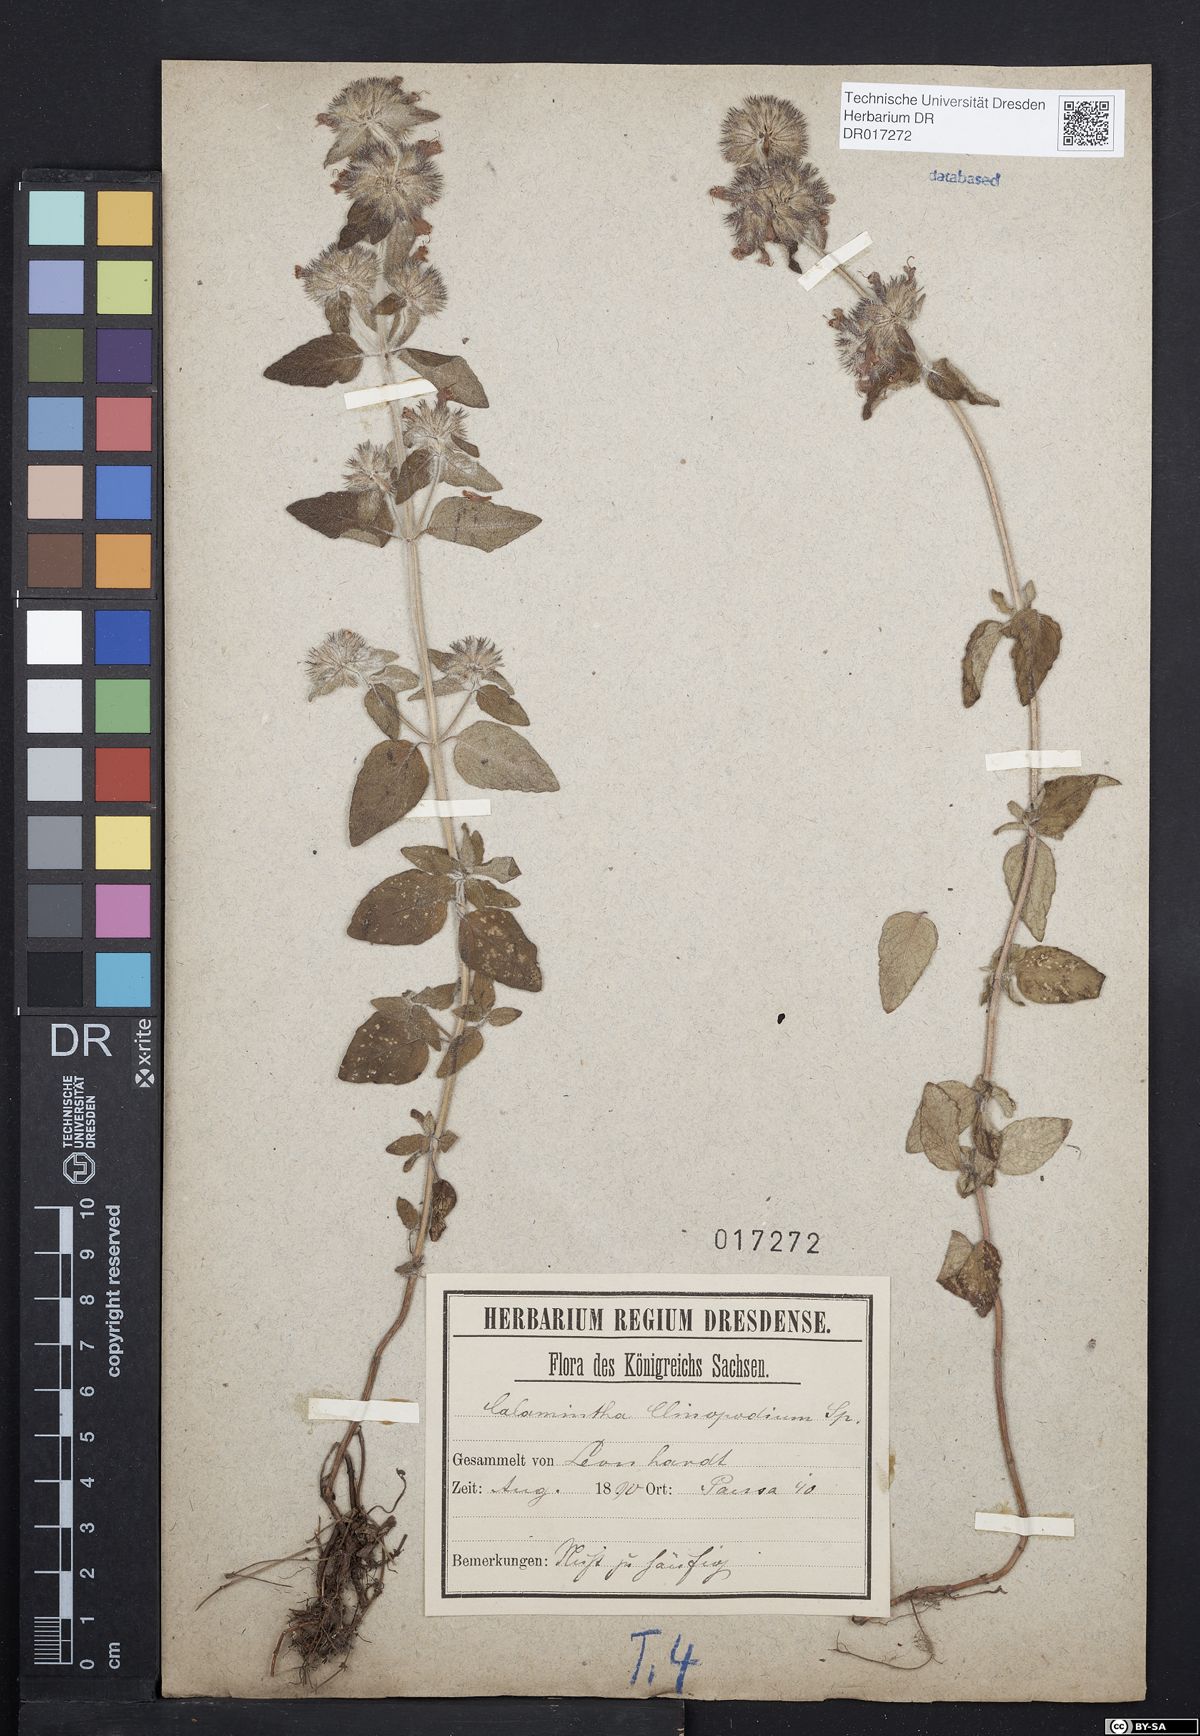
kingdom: Plantae
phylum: Tracheophyta
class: Magnoliopsida
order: Lamiales
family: Lamiaceae
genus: Clinopodium
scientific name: Clinopodium vulgare
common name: Wild basil
